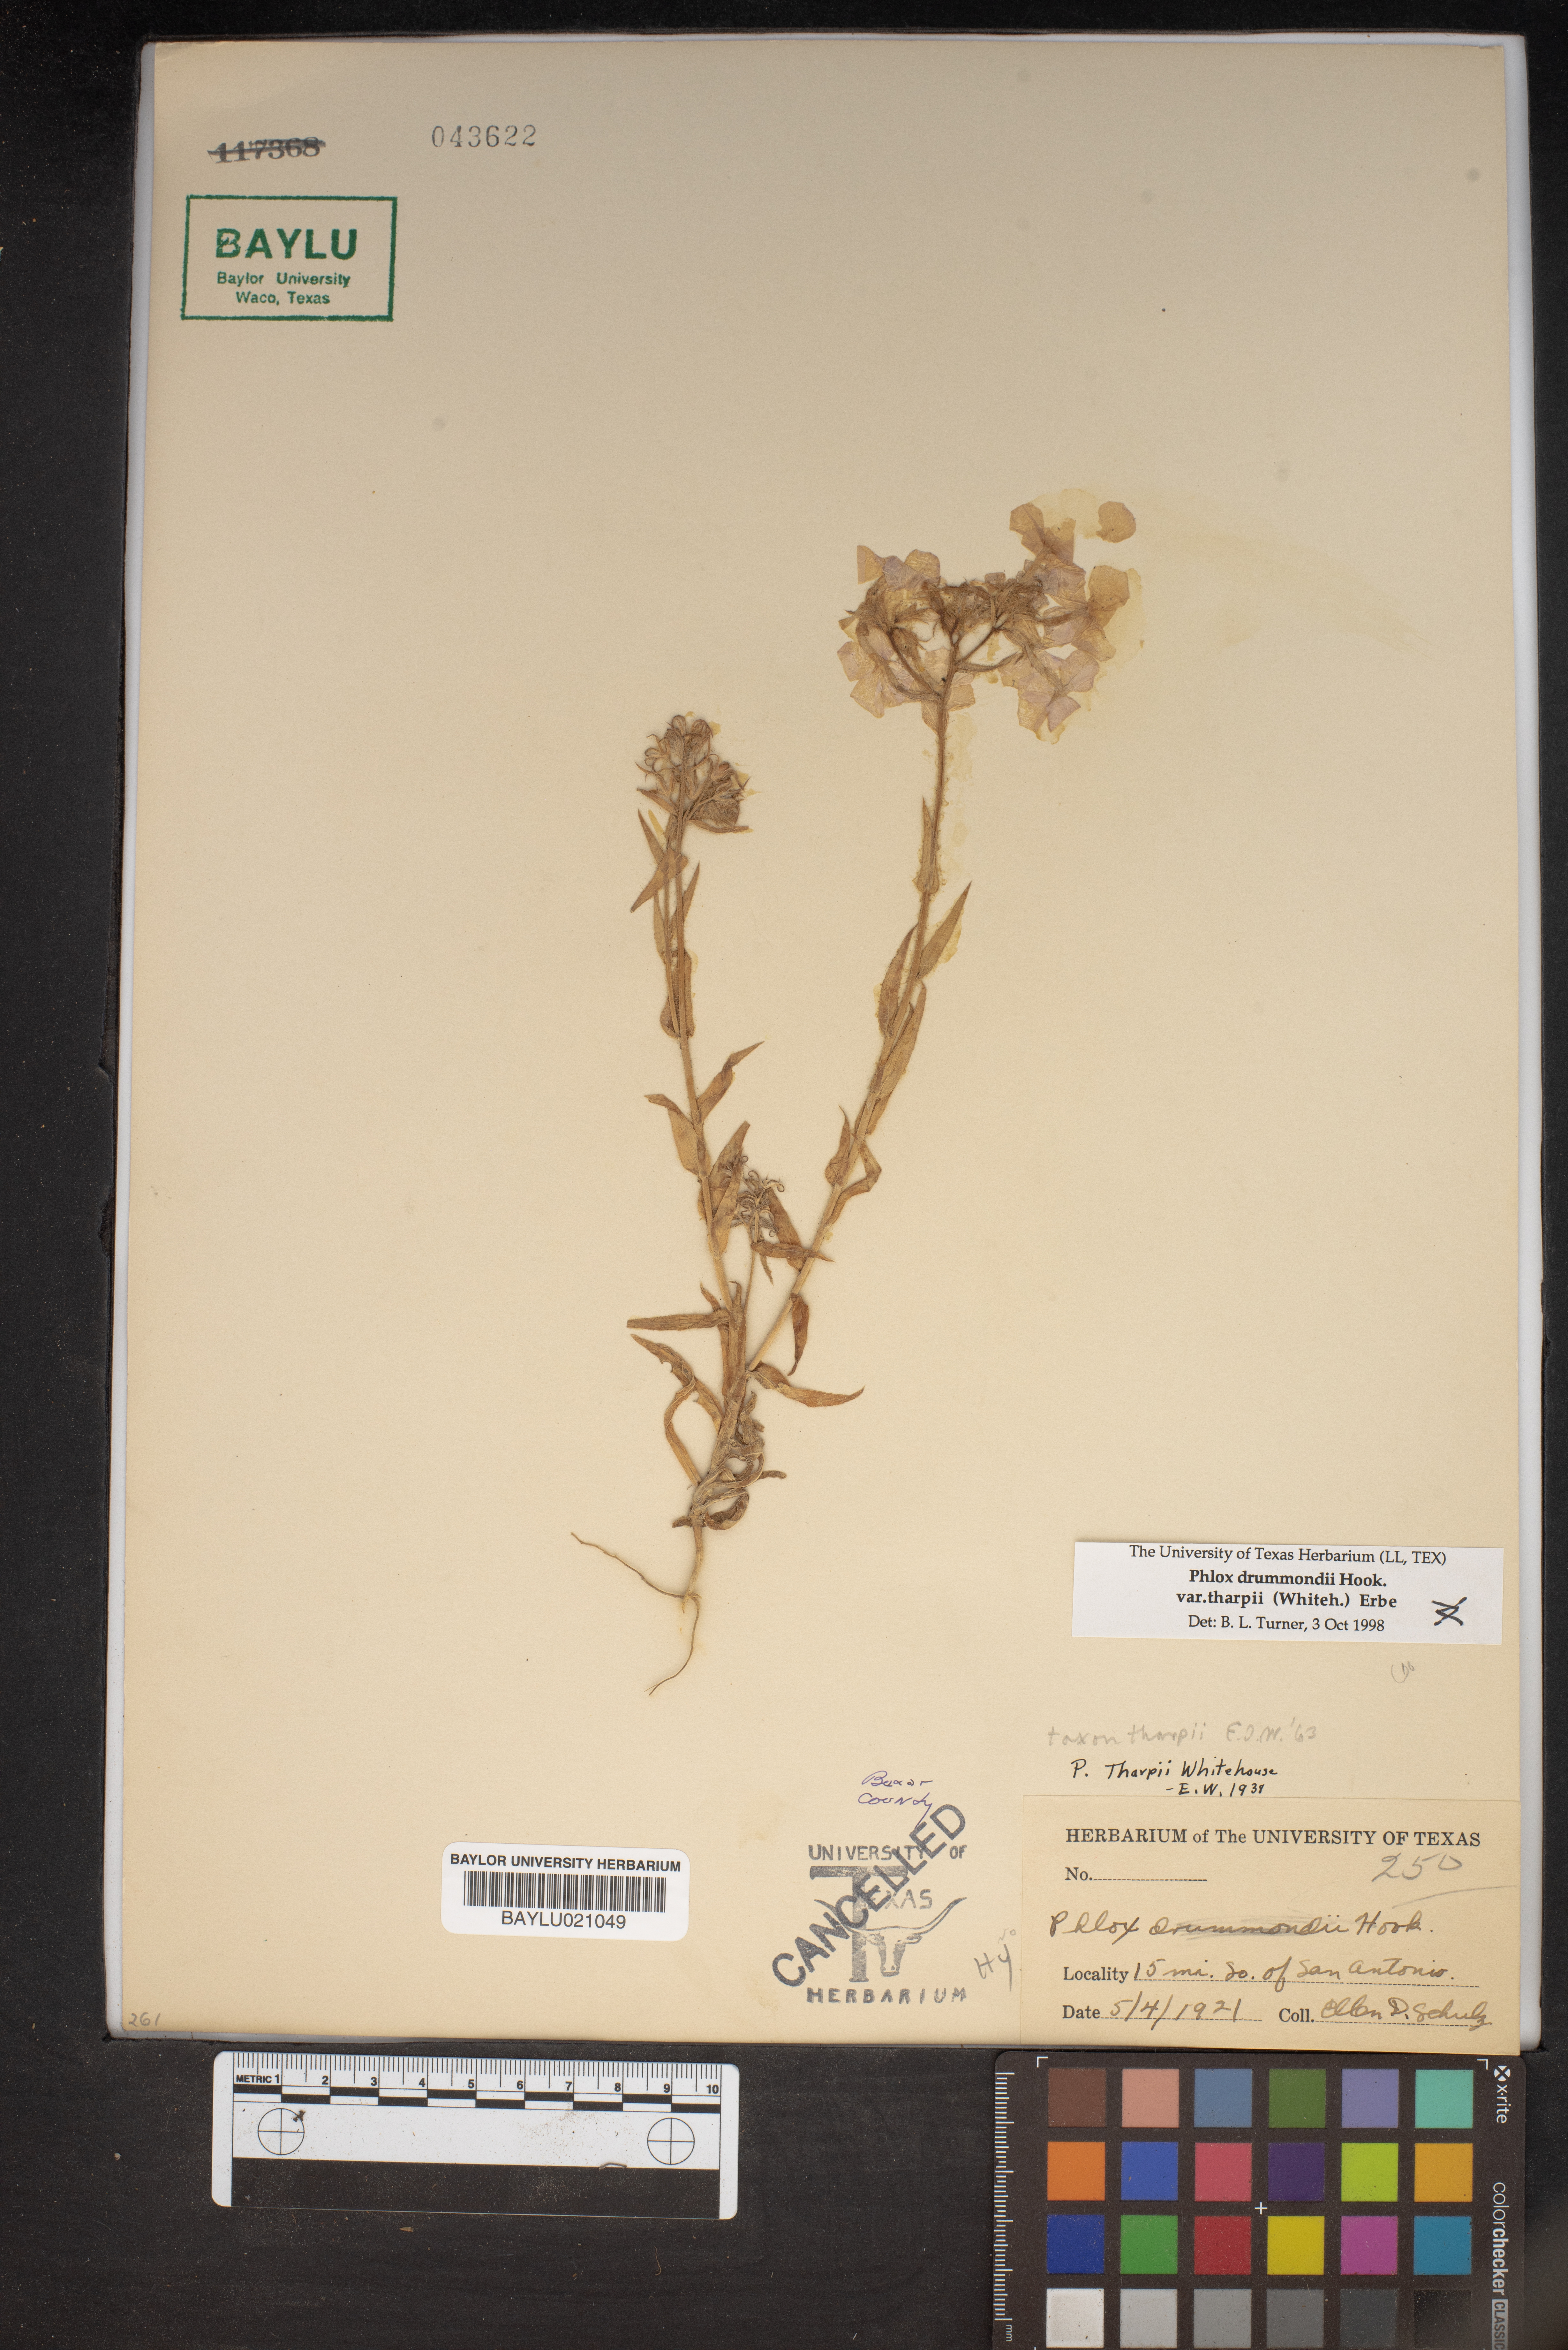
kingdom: Plantae
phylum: Tracheophyta
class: Magnoliopsida
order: Ericales
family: Polemoniaceae
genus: Phlox
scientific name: Phlox drummondii
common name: Drummond's phlox
